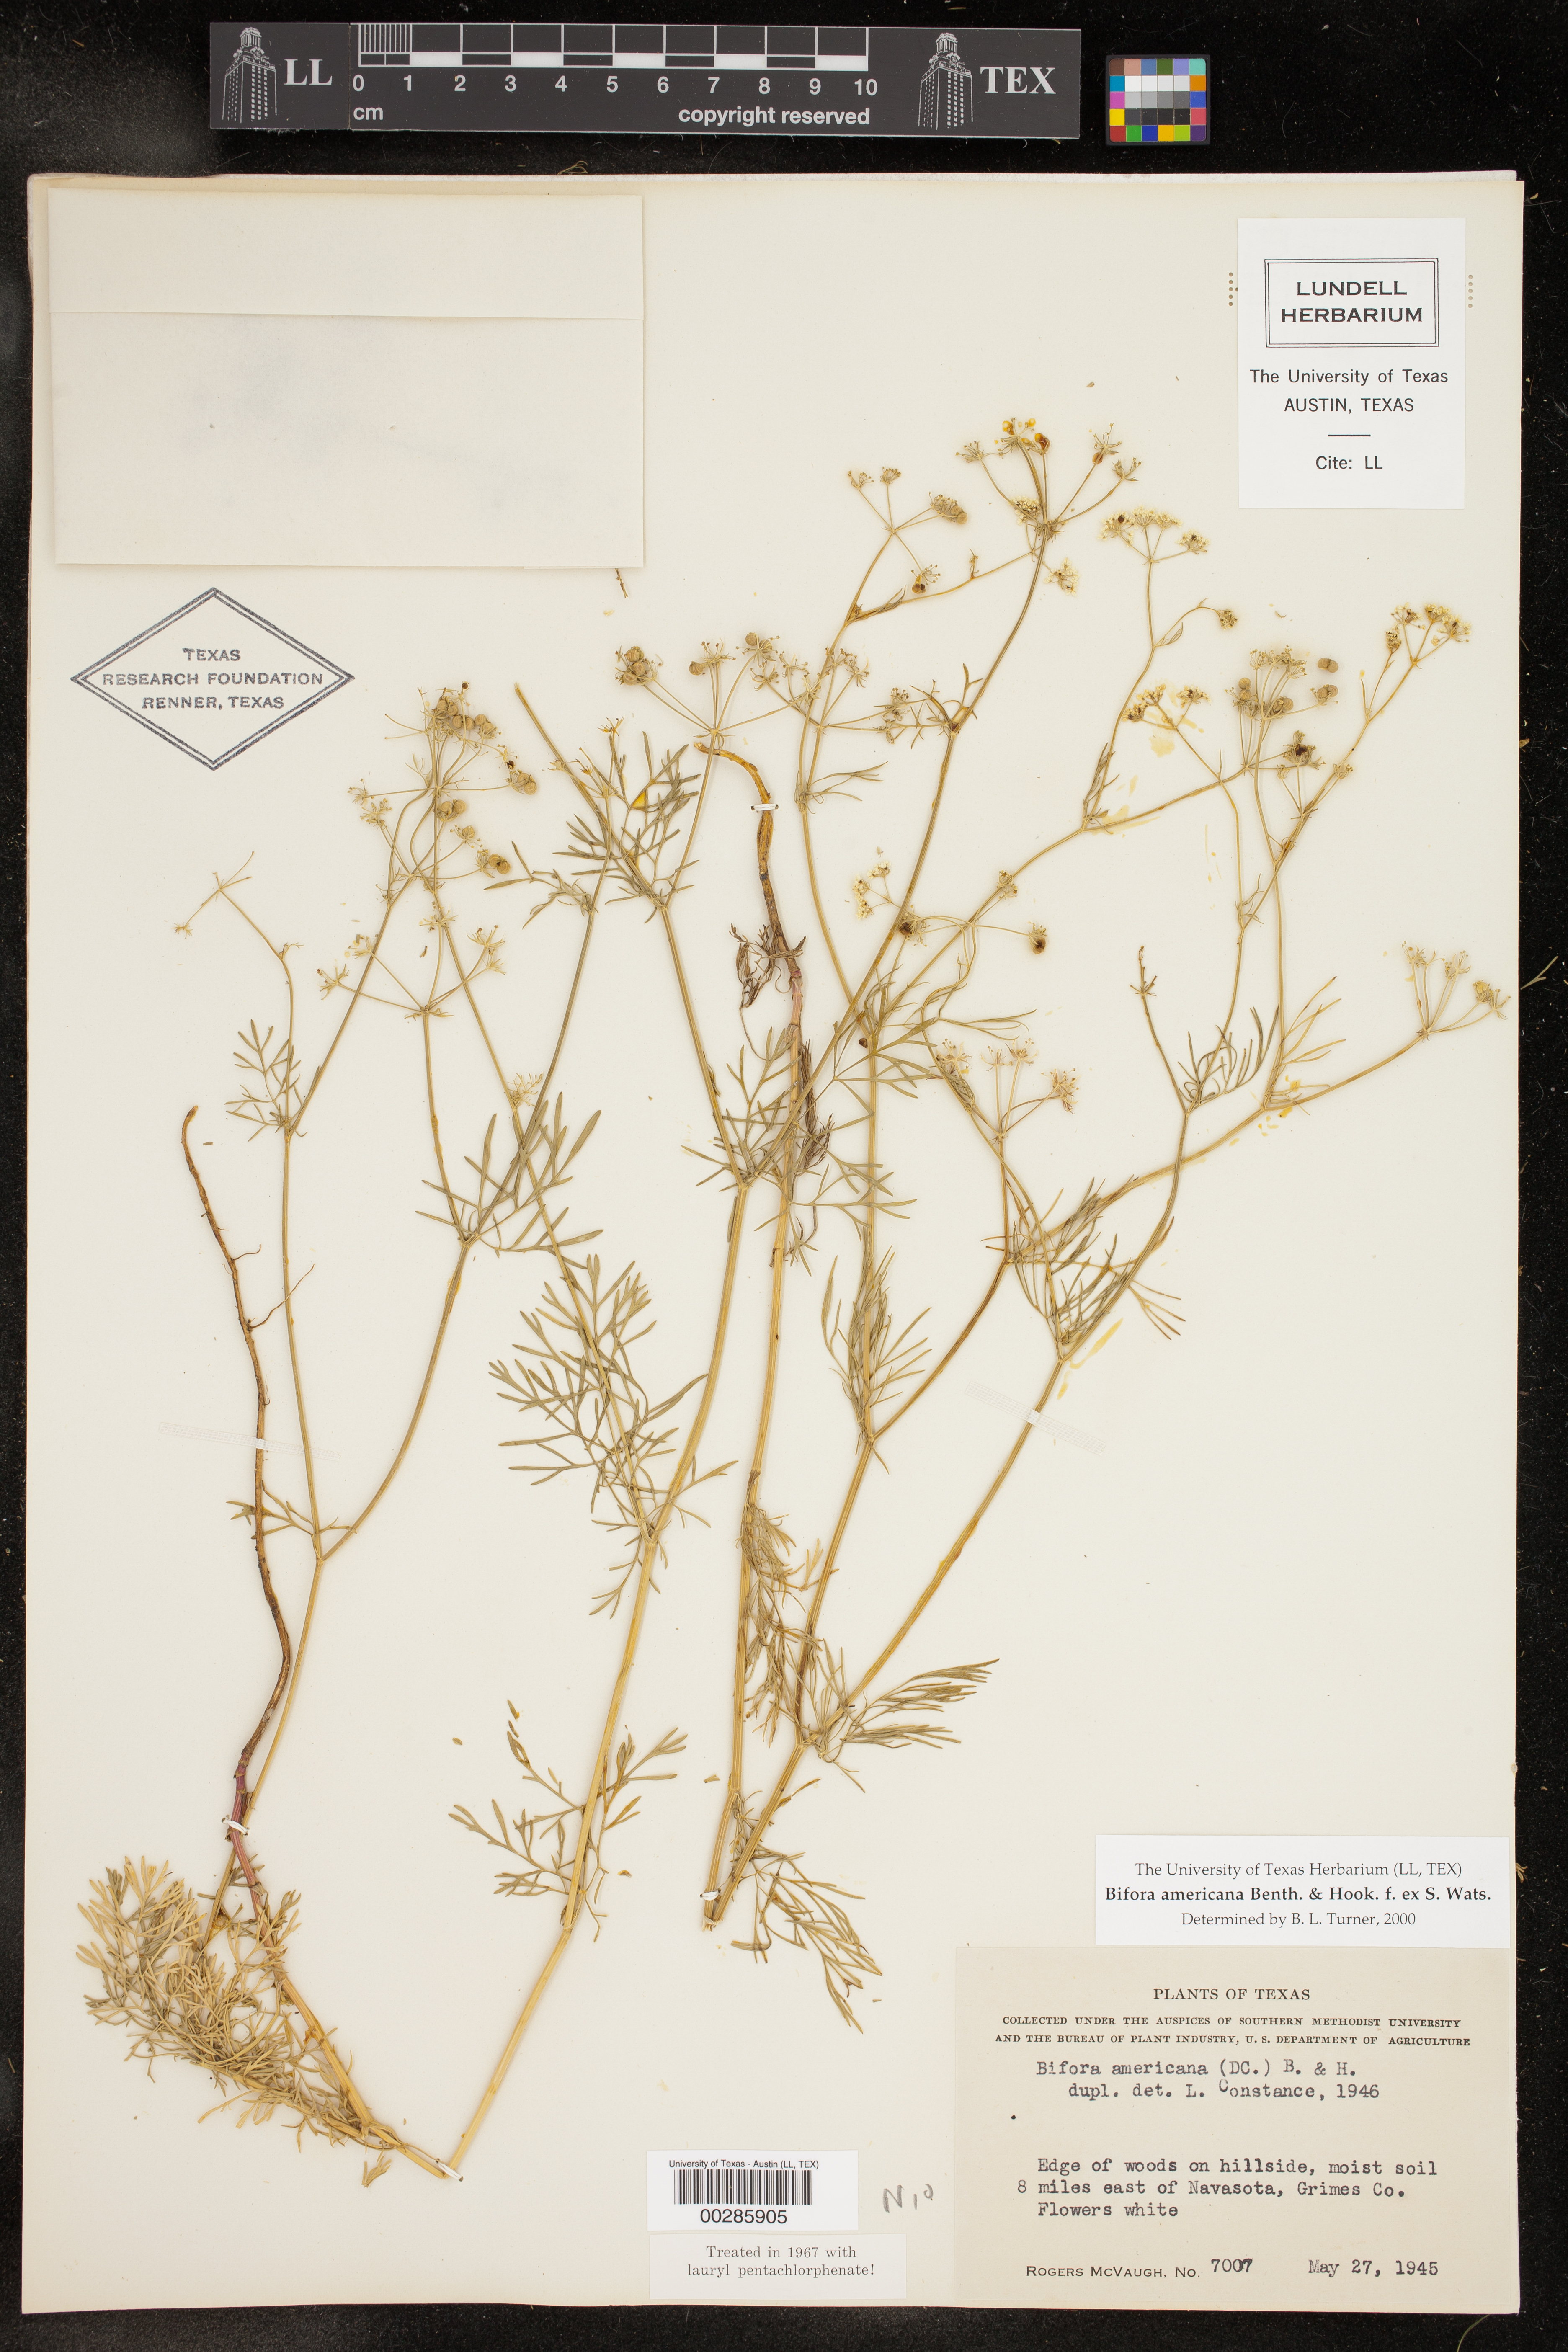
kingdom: Plantae
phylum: Tracheophyta
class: Magnoliopsida
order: Apiales
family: Apiaceae
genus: Atrema
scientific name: Atrema americanum
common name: Prairie-bishop
